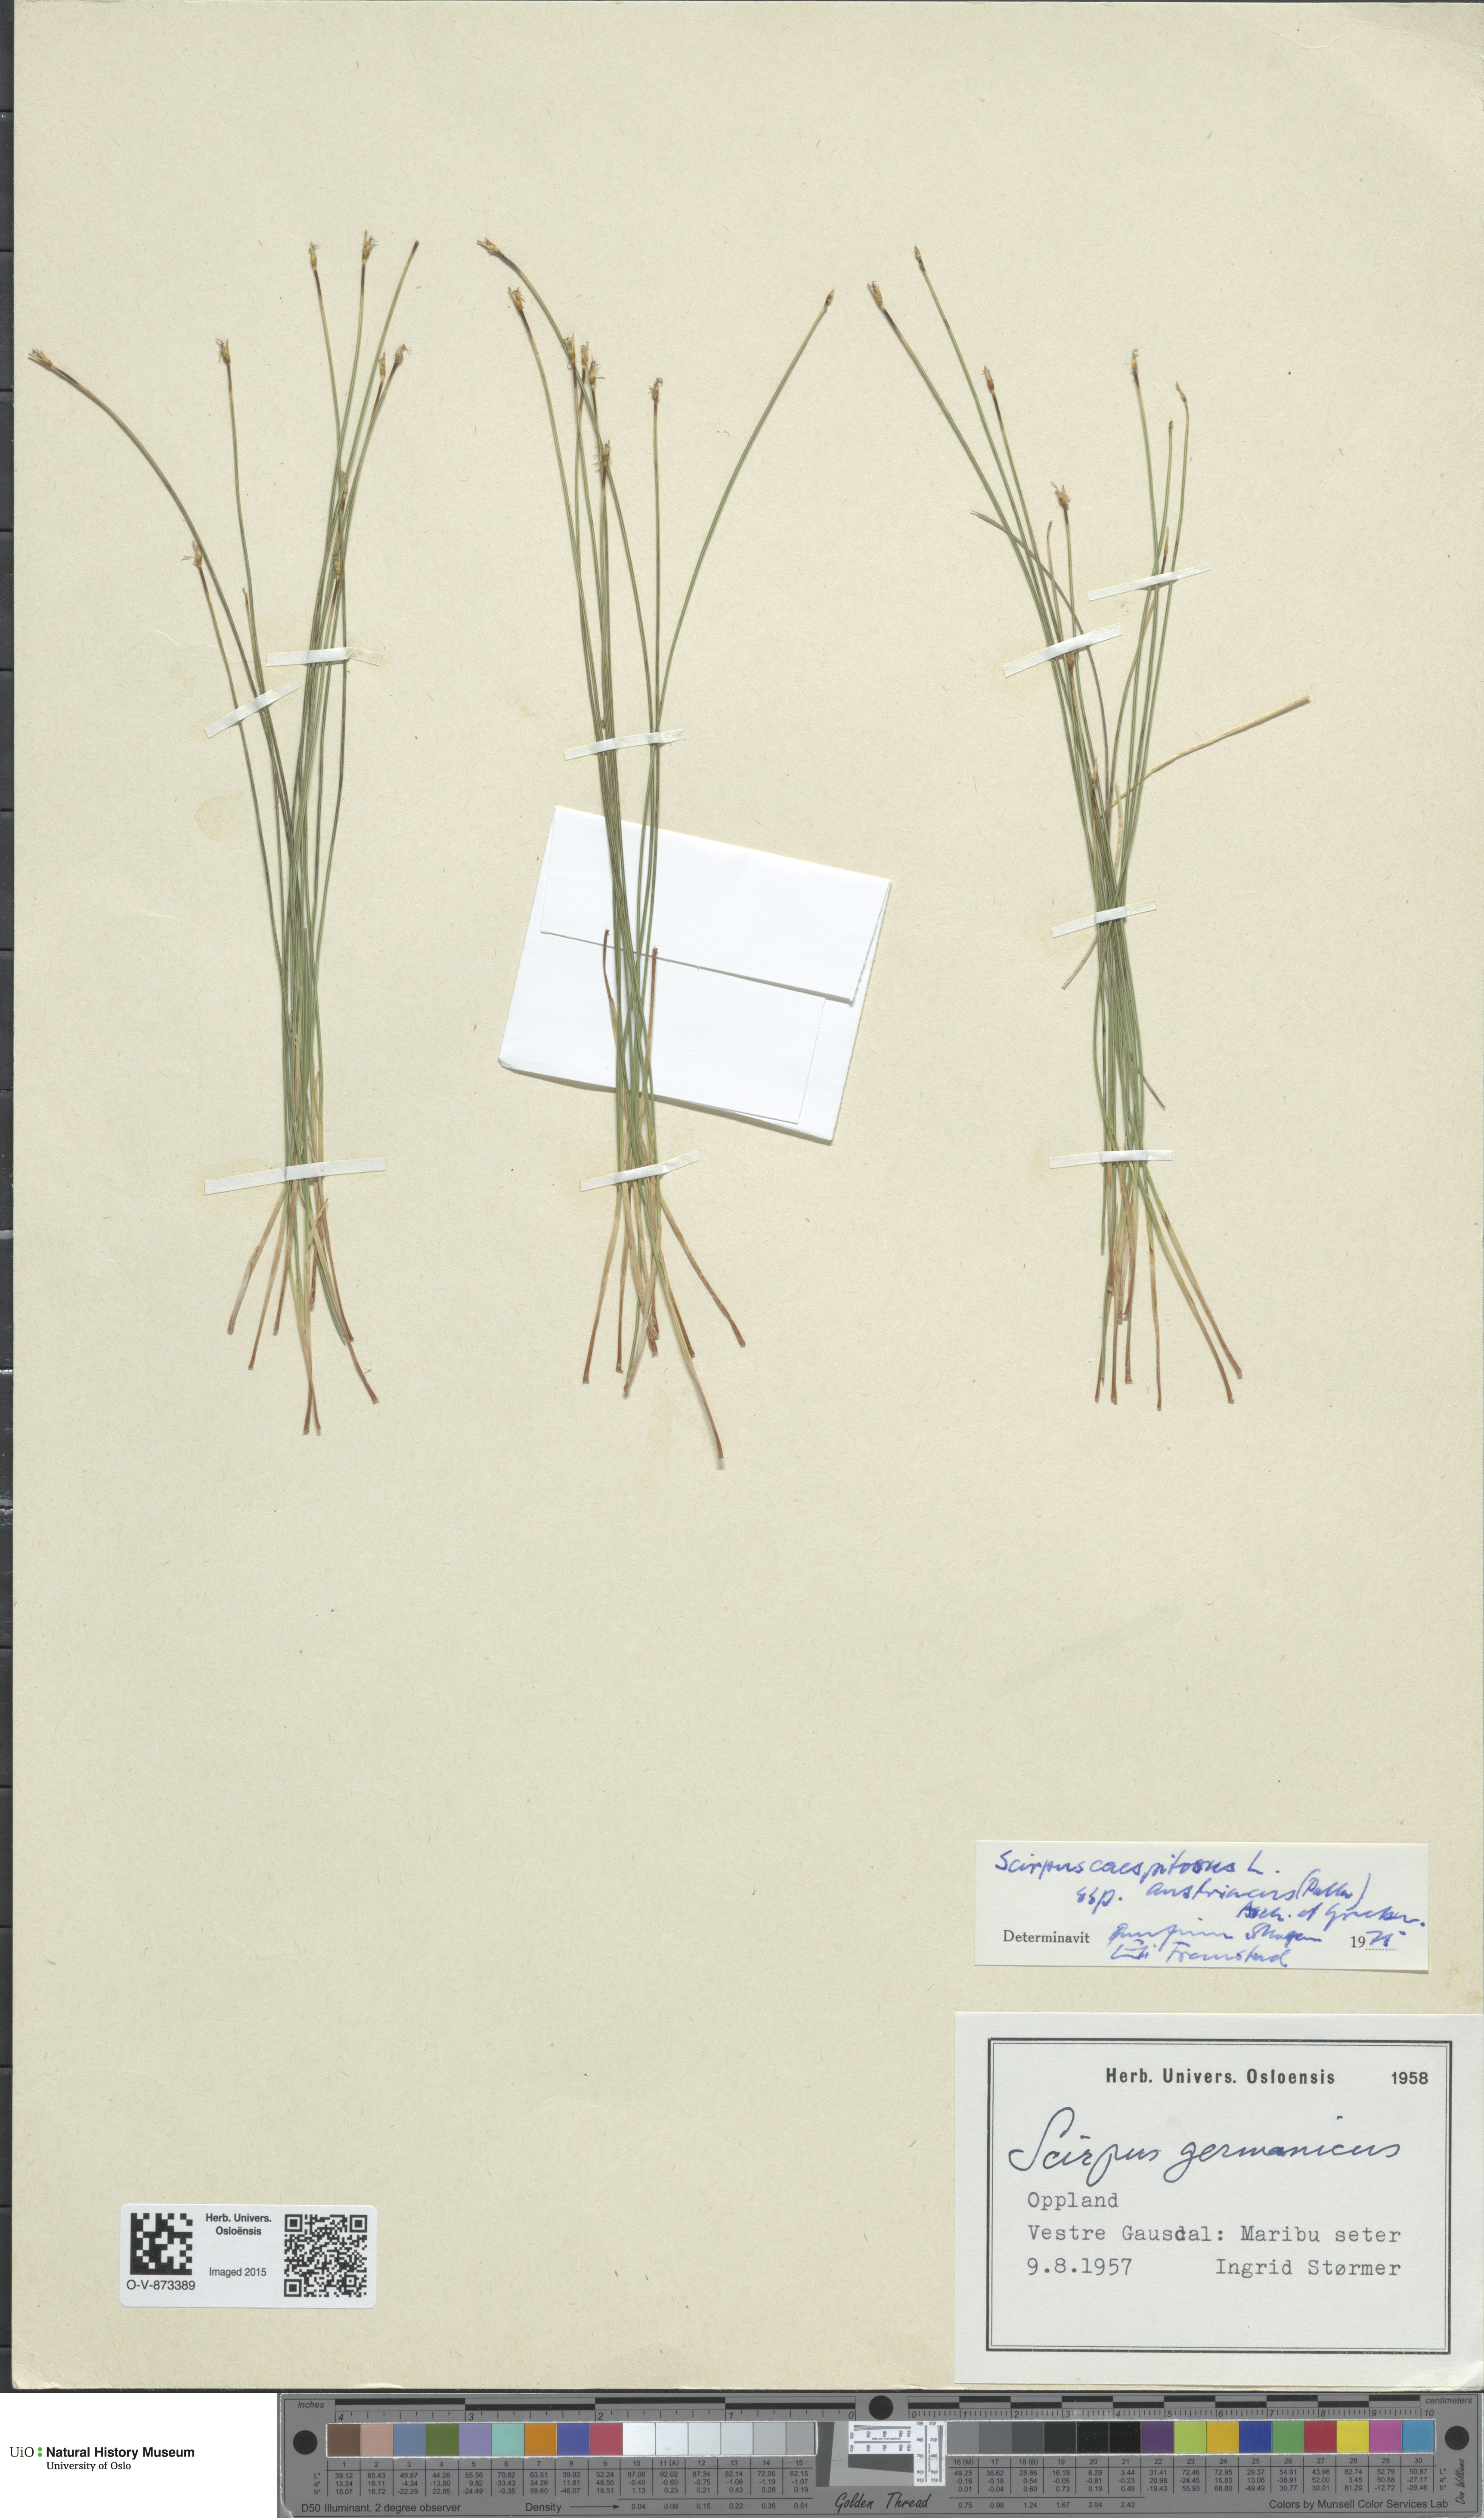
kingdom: Plantae
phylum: Tracheophyta
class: Liliopsida
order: Poales
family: Cyperaceae
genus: Trichophorum
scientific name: Trichophorum cespitosum
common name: Cespitose bulrush
